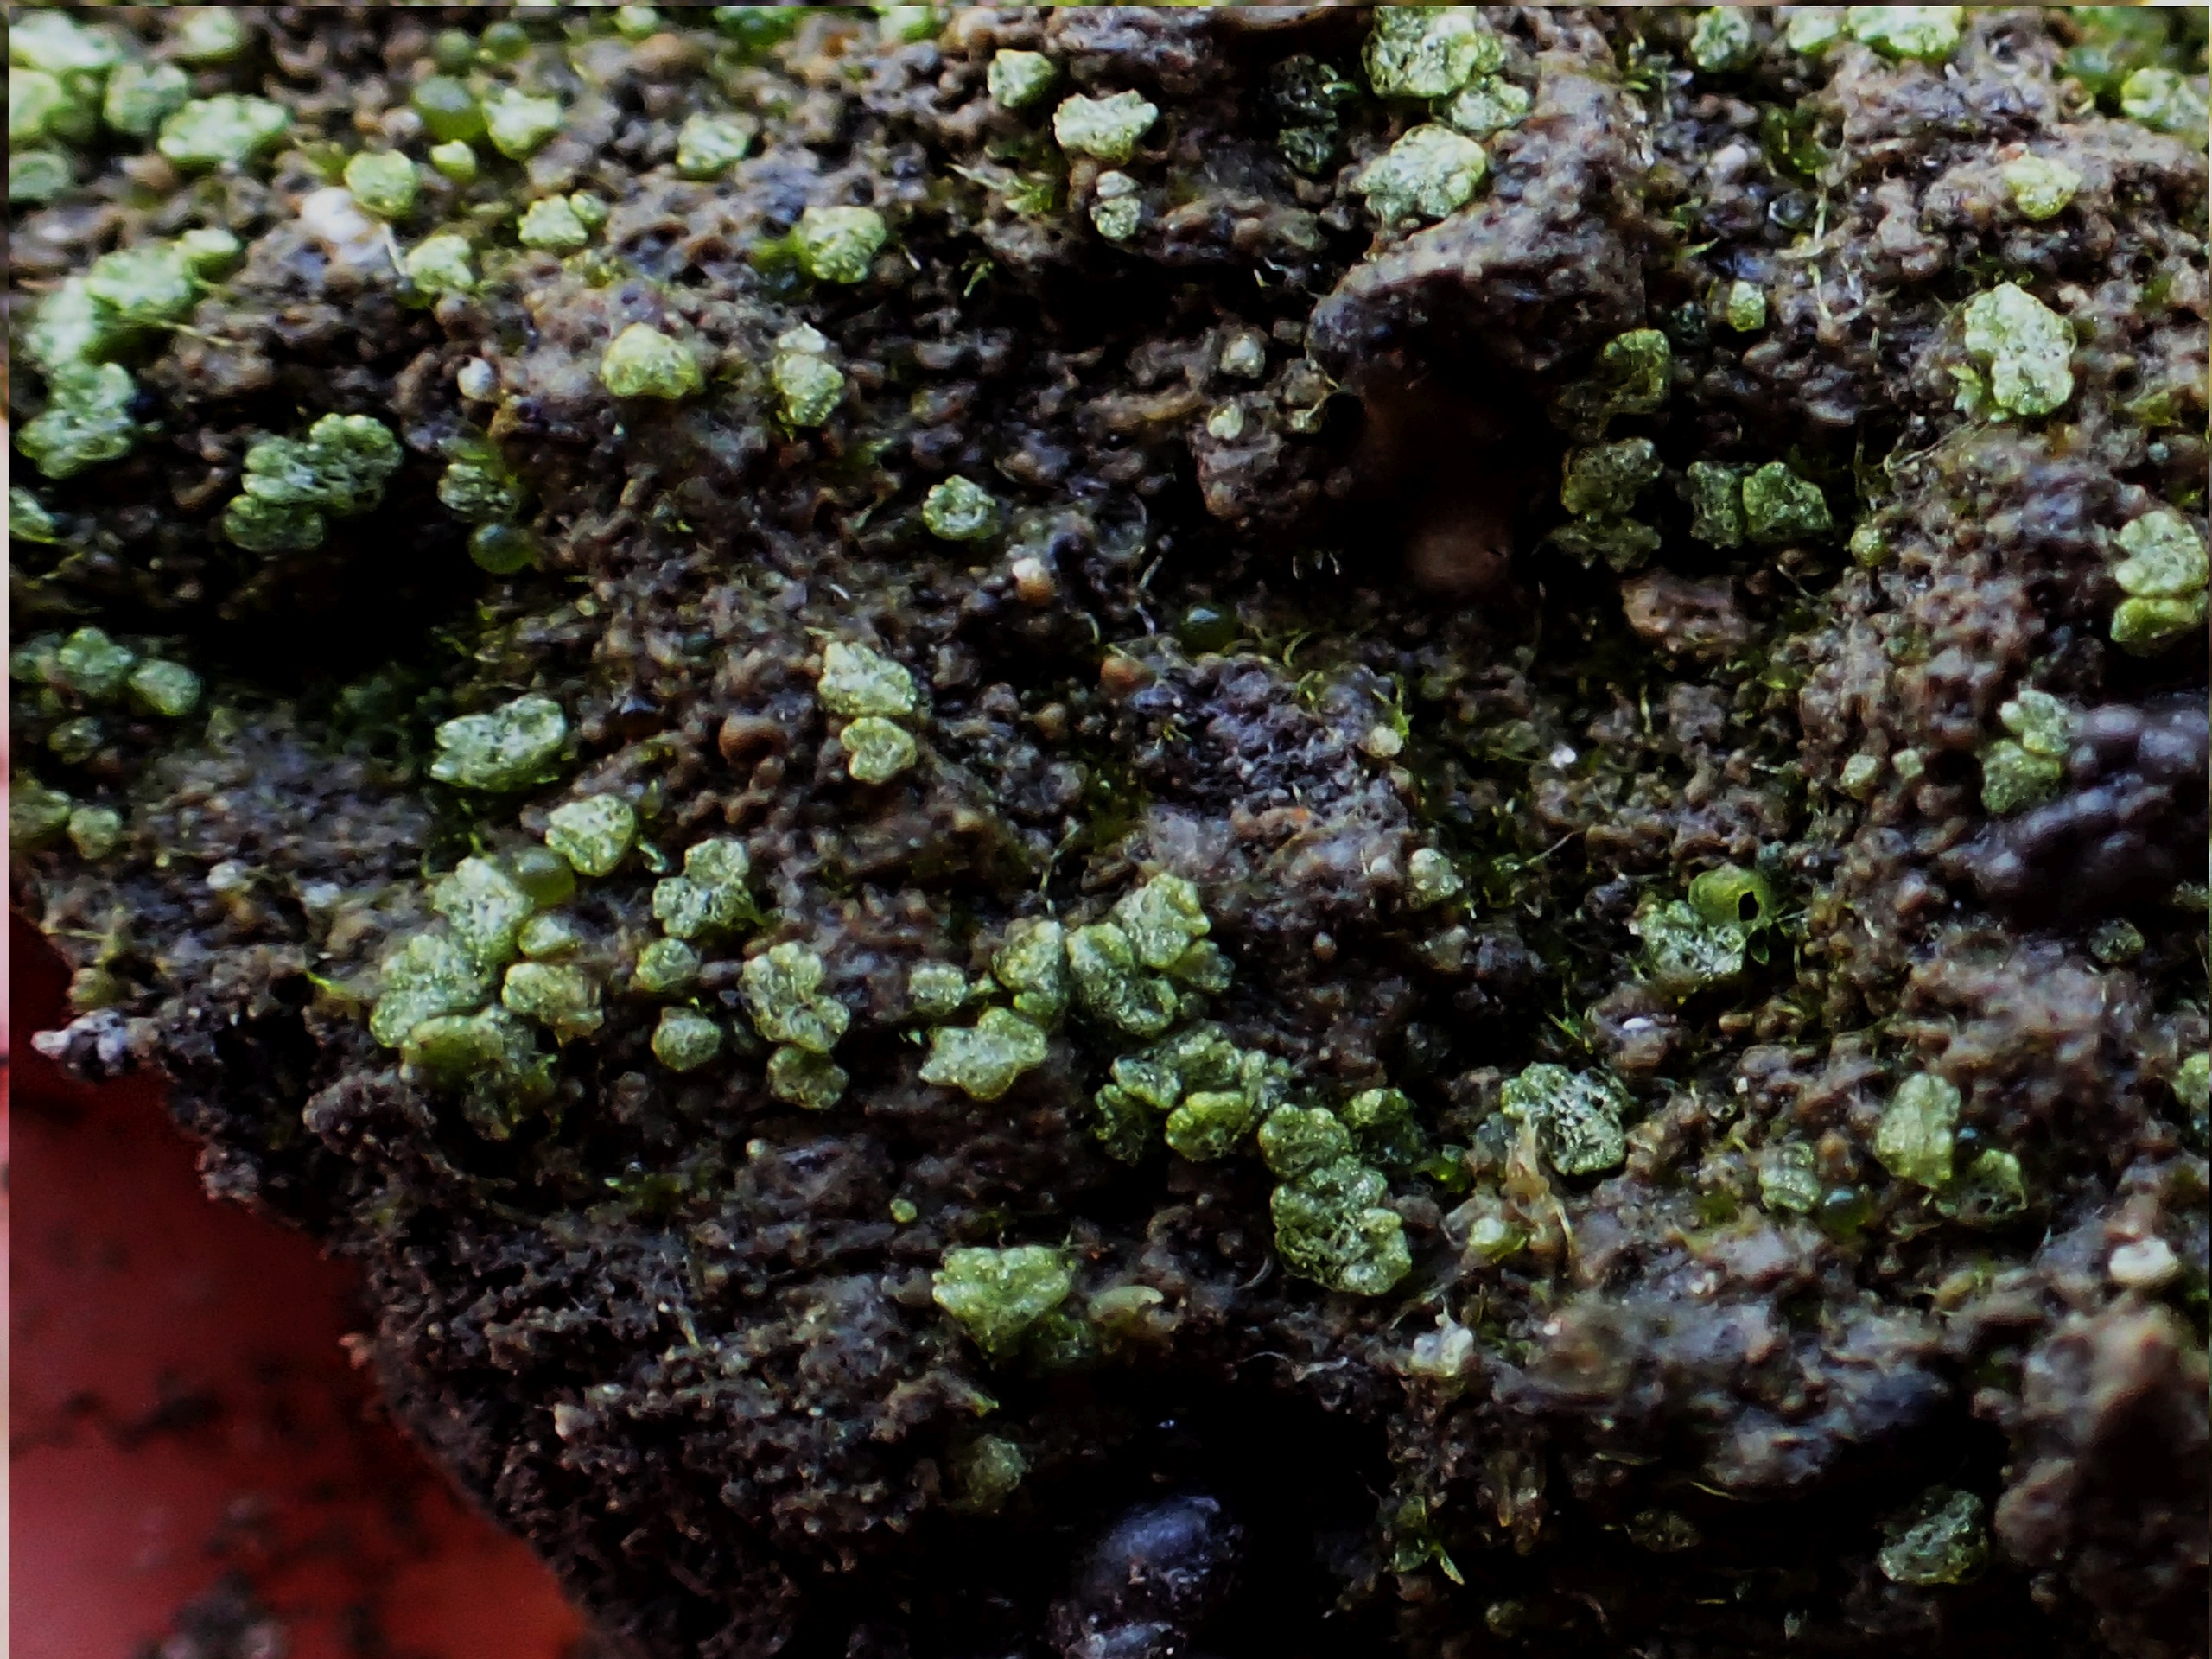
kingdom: Plantae
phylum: Marchantiophyta
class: Marchantiopsida
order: Marchantiales
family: Ricciaceae
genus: Riccia
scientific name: Riccia cavernosa
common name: Grubet stjerneløv
